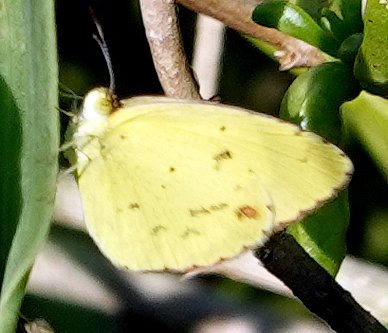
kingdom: Animalia
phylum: Arthropoda
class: Insecta
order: Lepidoptera
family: Pieridae
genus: Pyrisitia
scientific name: Pyrisitia lisa
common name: Little Yellow
